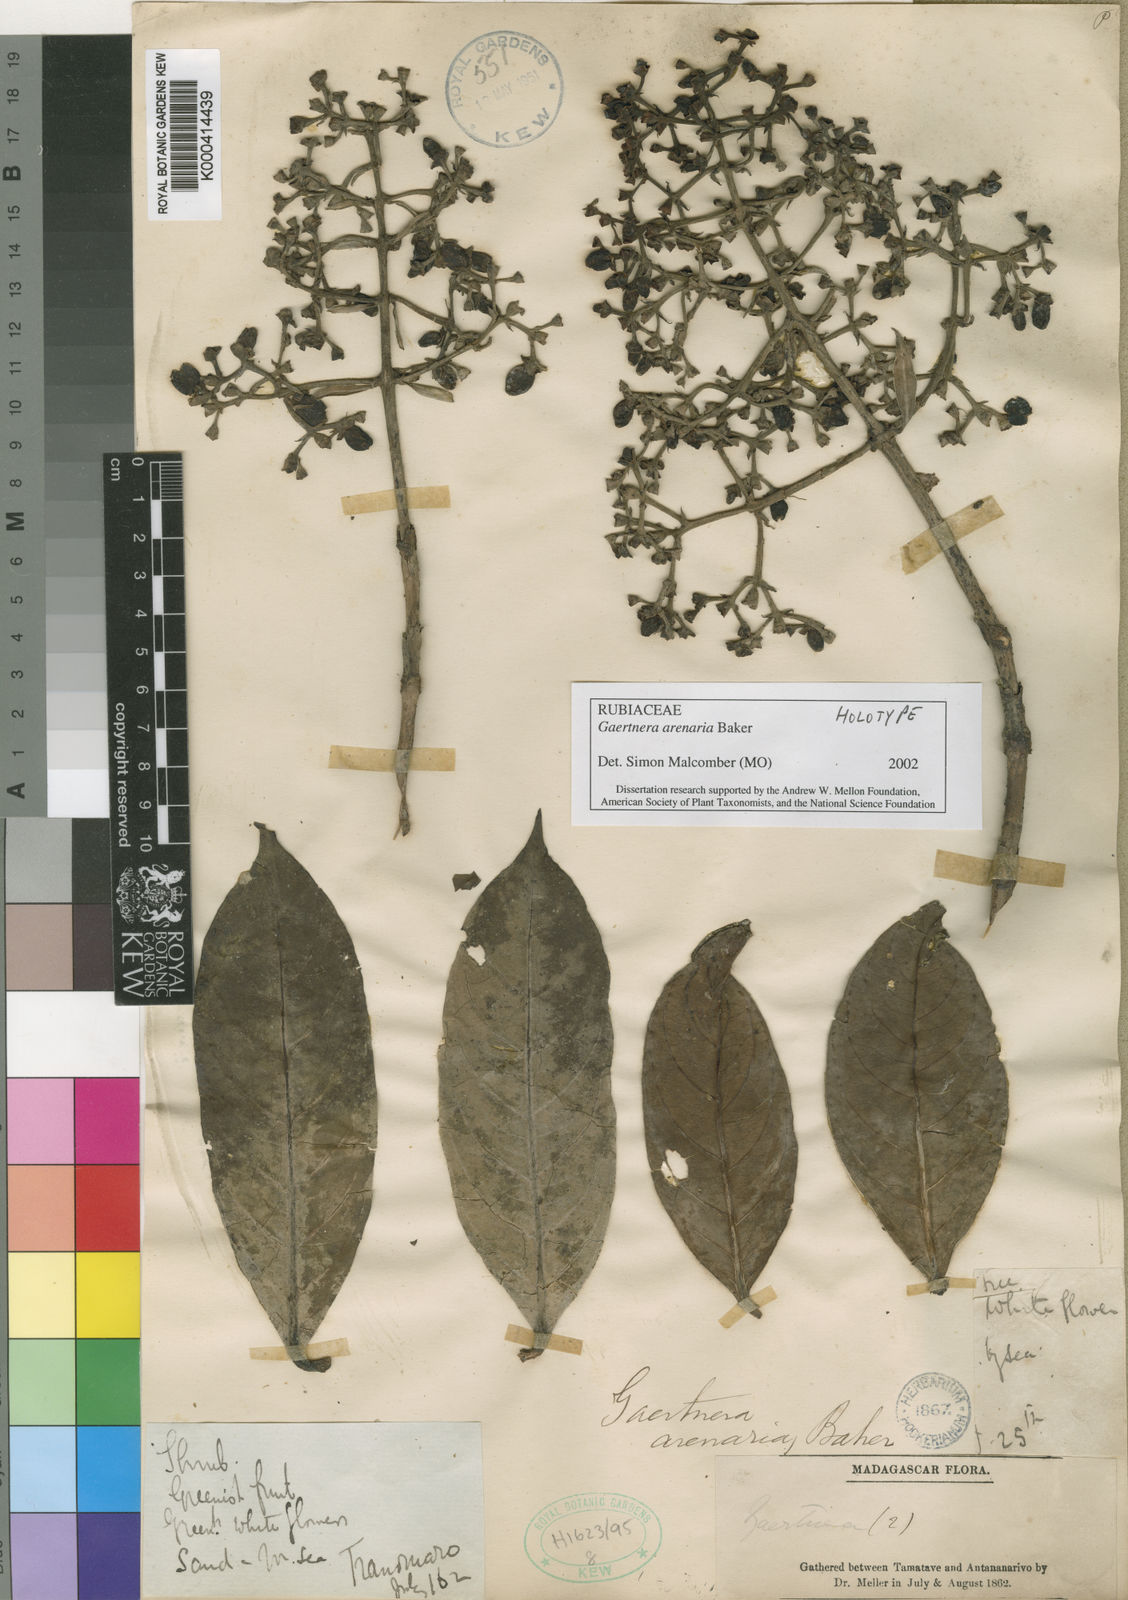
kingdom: Plantae
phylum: Tracheophyta
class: Magnoliopsida
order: Gentianales
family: Rubiaceae
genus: Gaertnera
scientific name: Gaertnera arenaria
